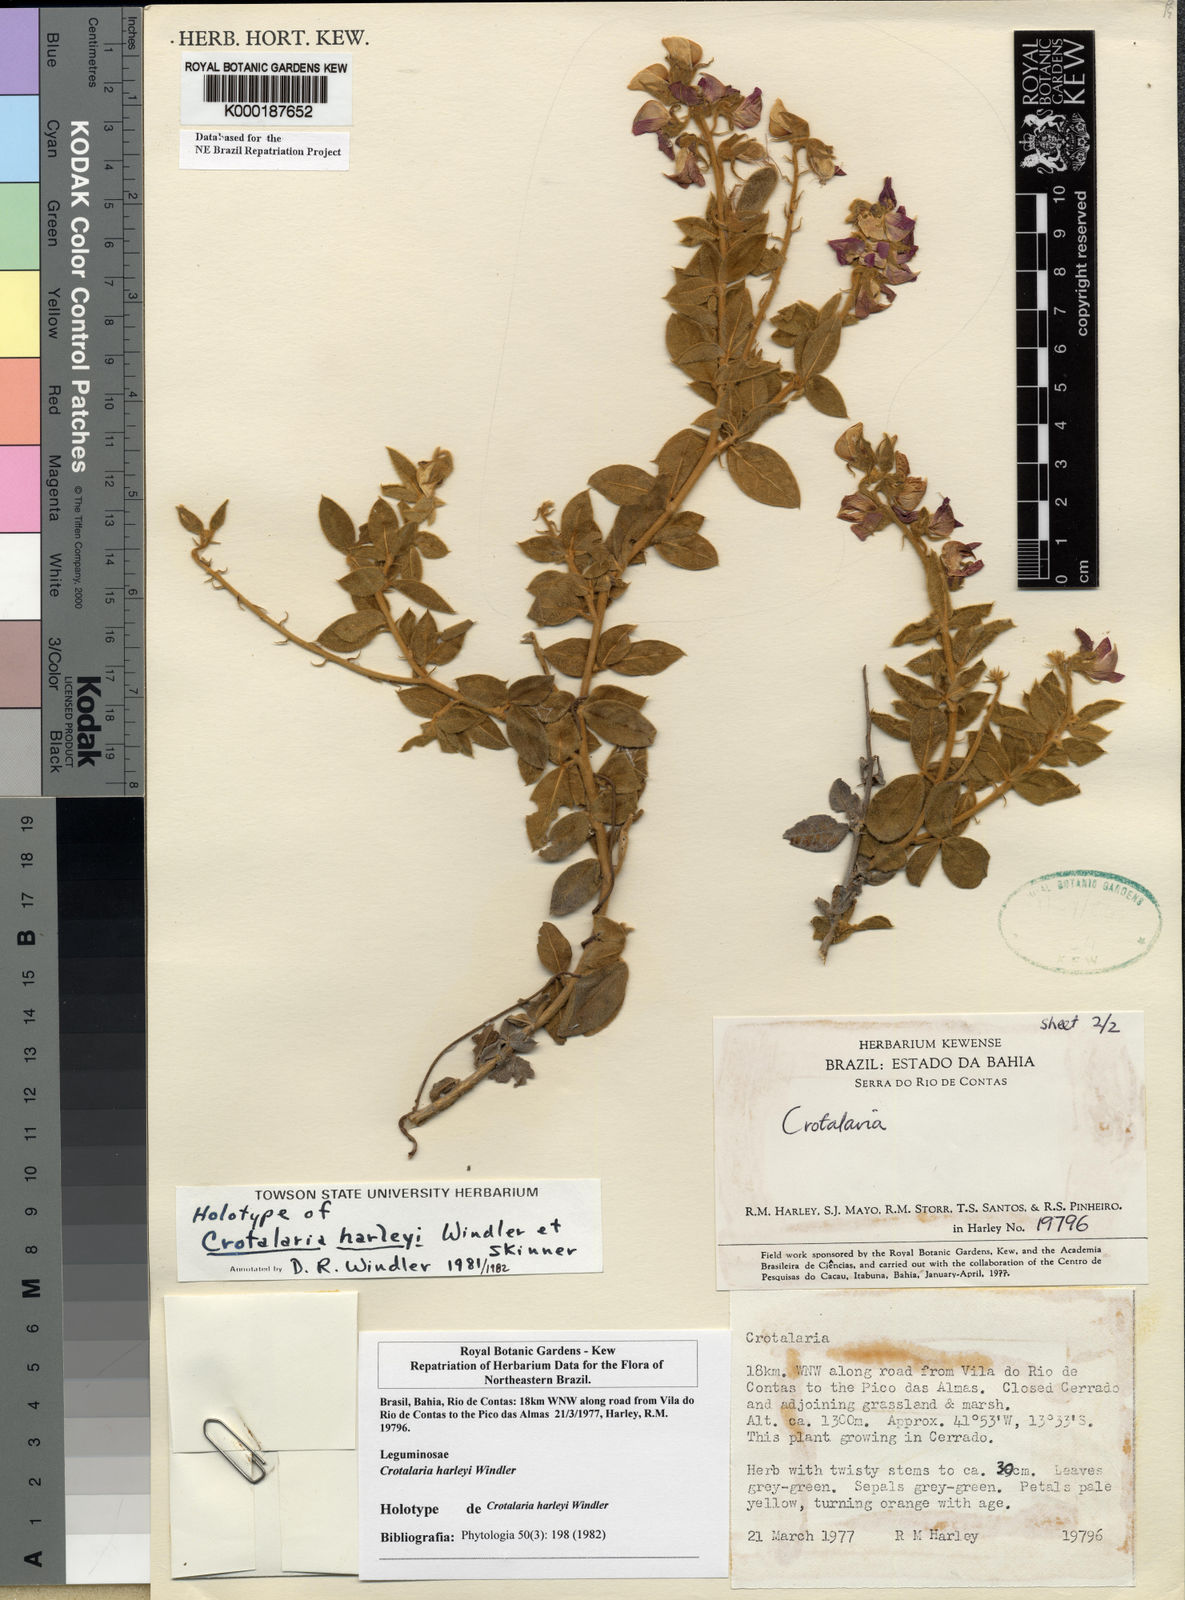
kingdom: Plantae
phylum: Tracheophyta
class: Magnoliopsida
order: Fabales
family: Fabaceae
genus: Crotalaria
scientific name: Crotalaria harleyi
